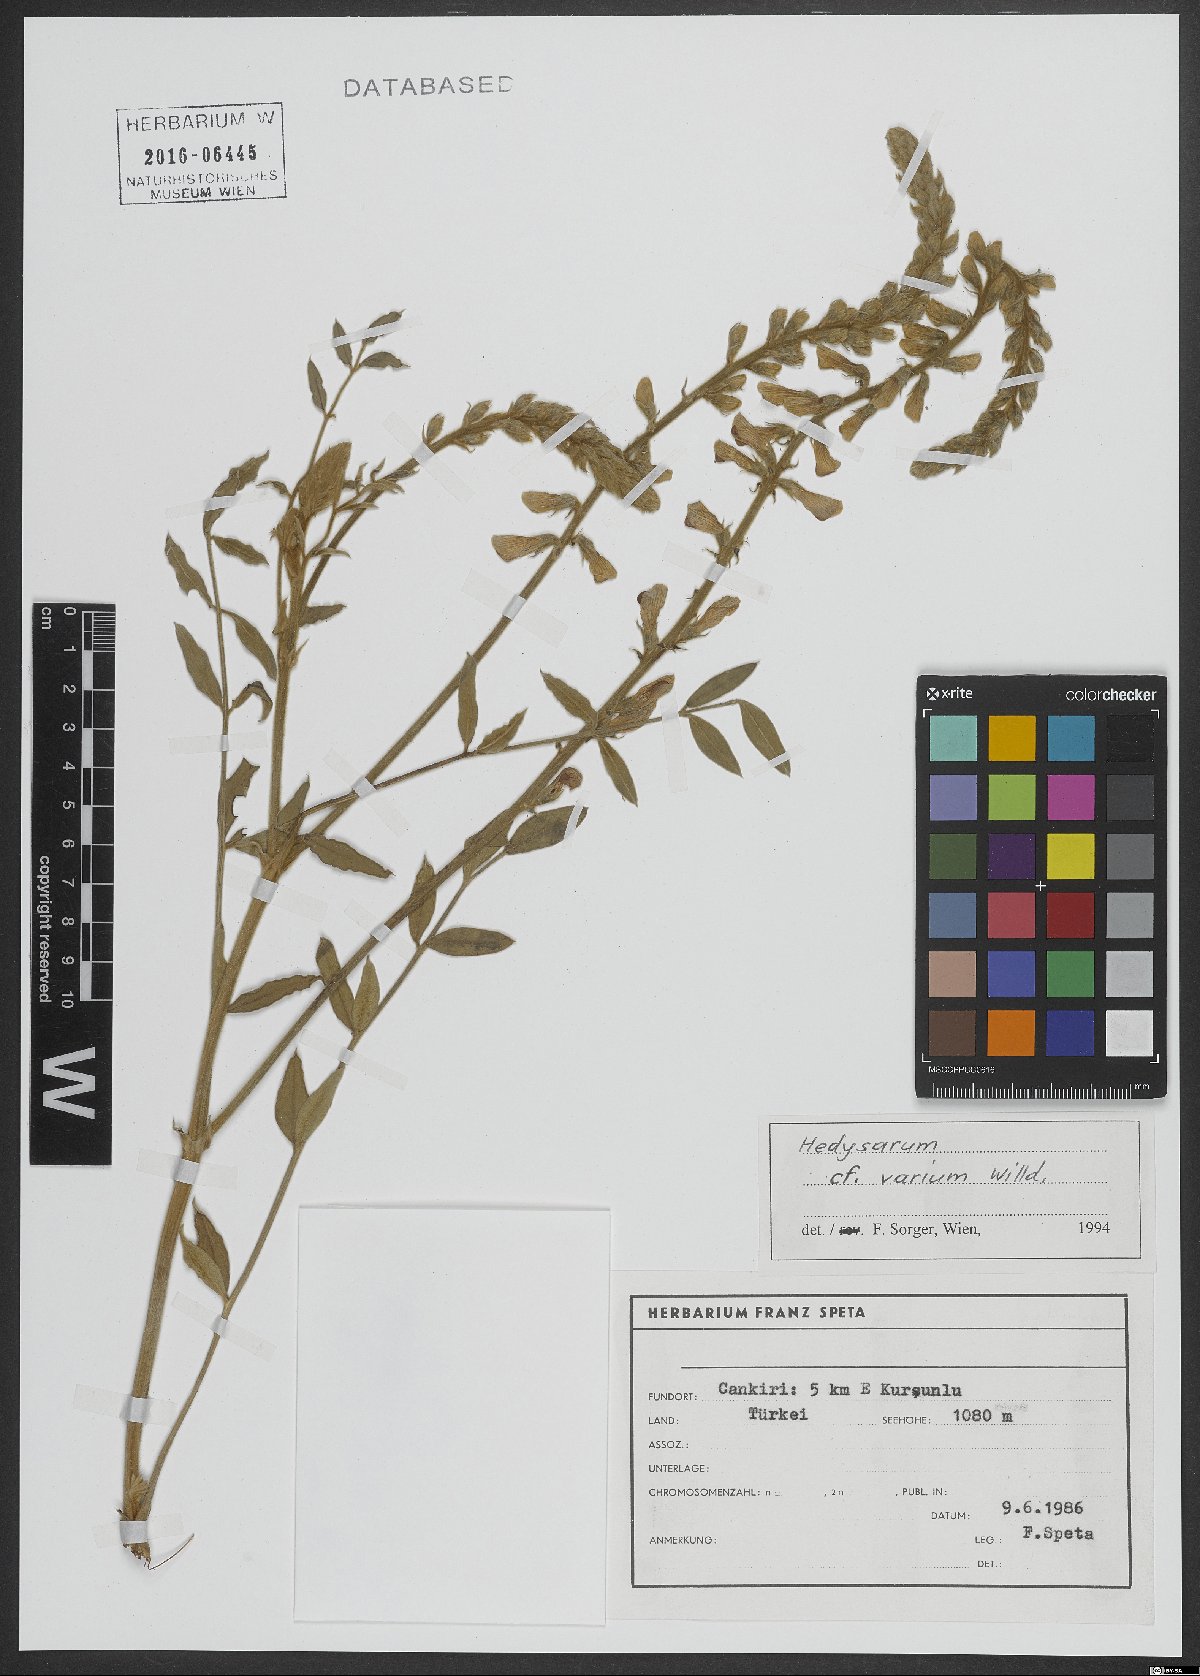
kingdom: Plantae
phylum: Tracheophyta
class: Magnoliopsida
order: Fabales
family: Fabaceae
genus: Hedysarum
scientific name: Hedysarum varium
